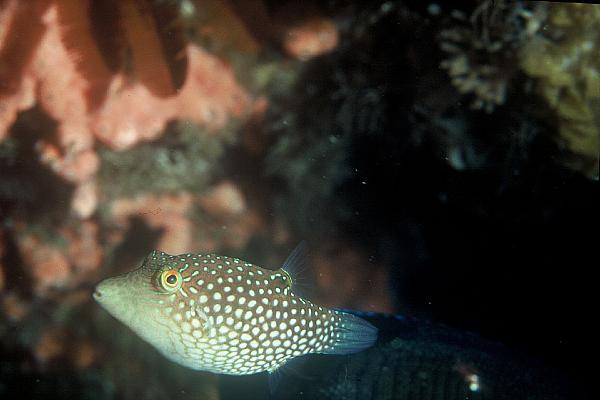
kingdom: Animalia
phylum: Chordata
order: Tetraodontiformes
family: Tetraodontidae
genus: Canthigaster
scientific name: Canthigaster janthinoptera
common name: Honeycomb toby
